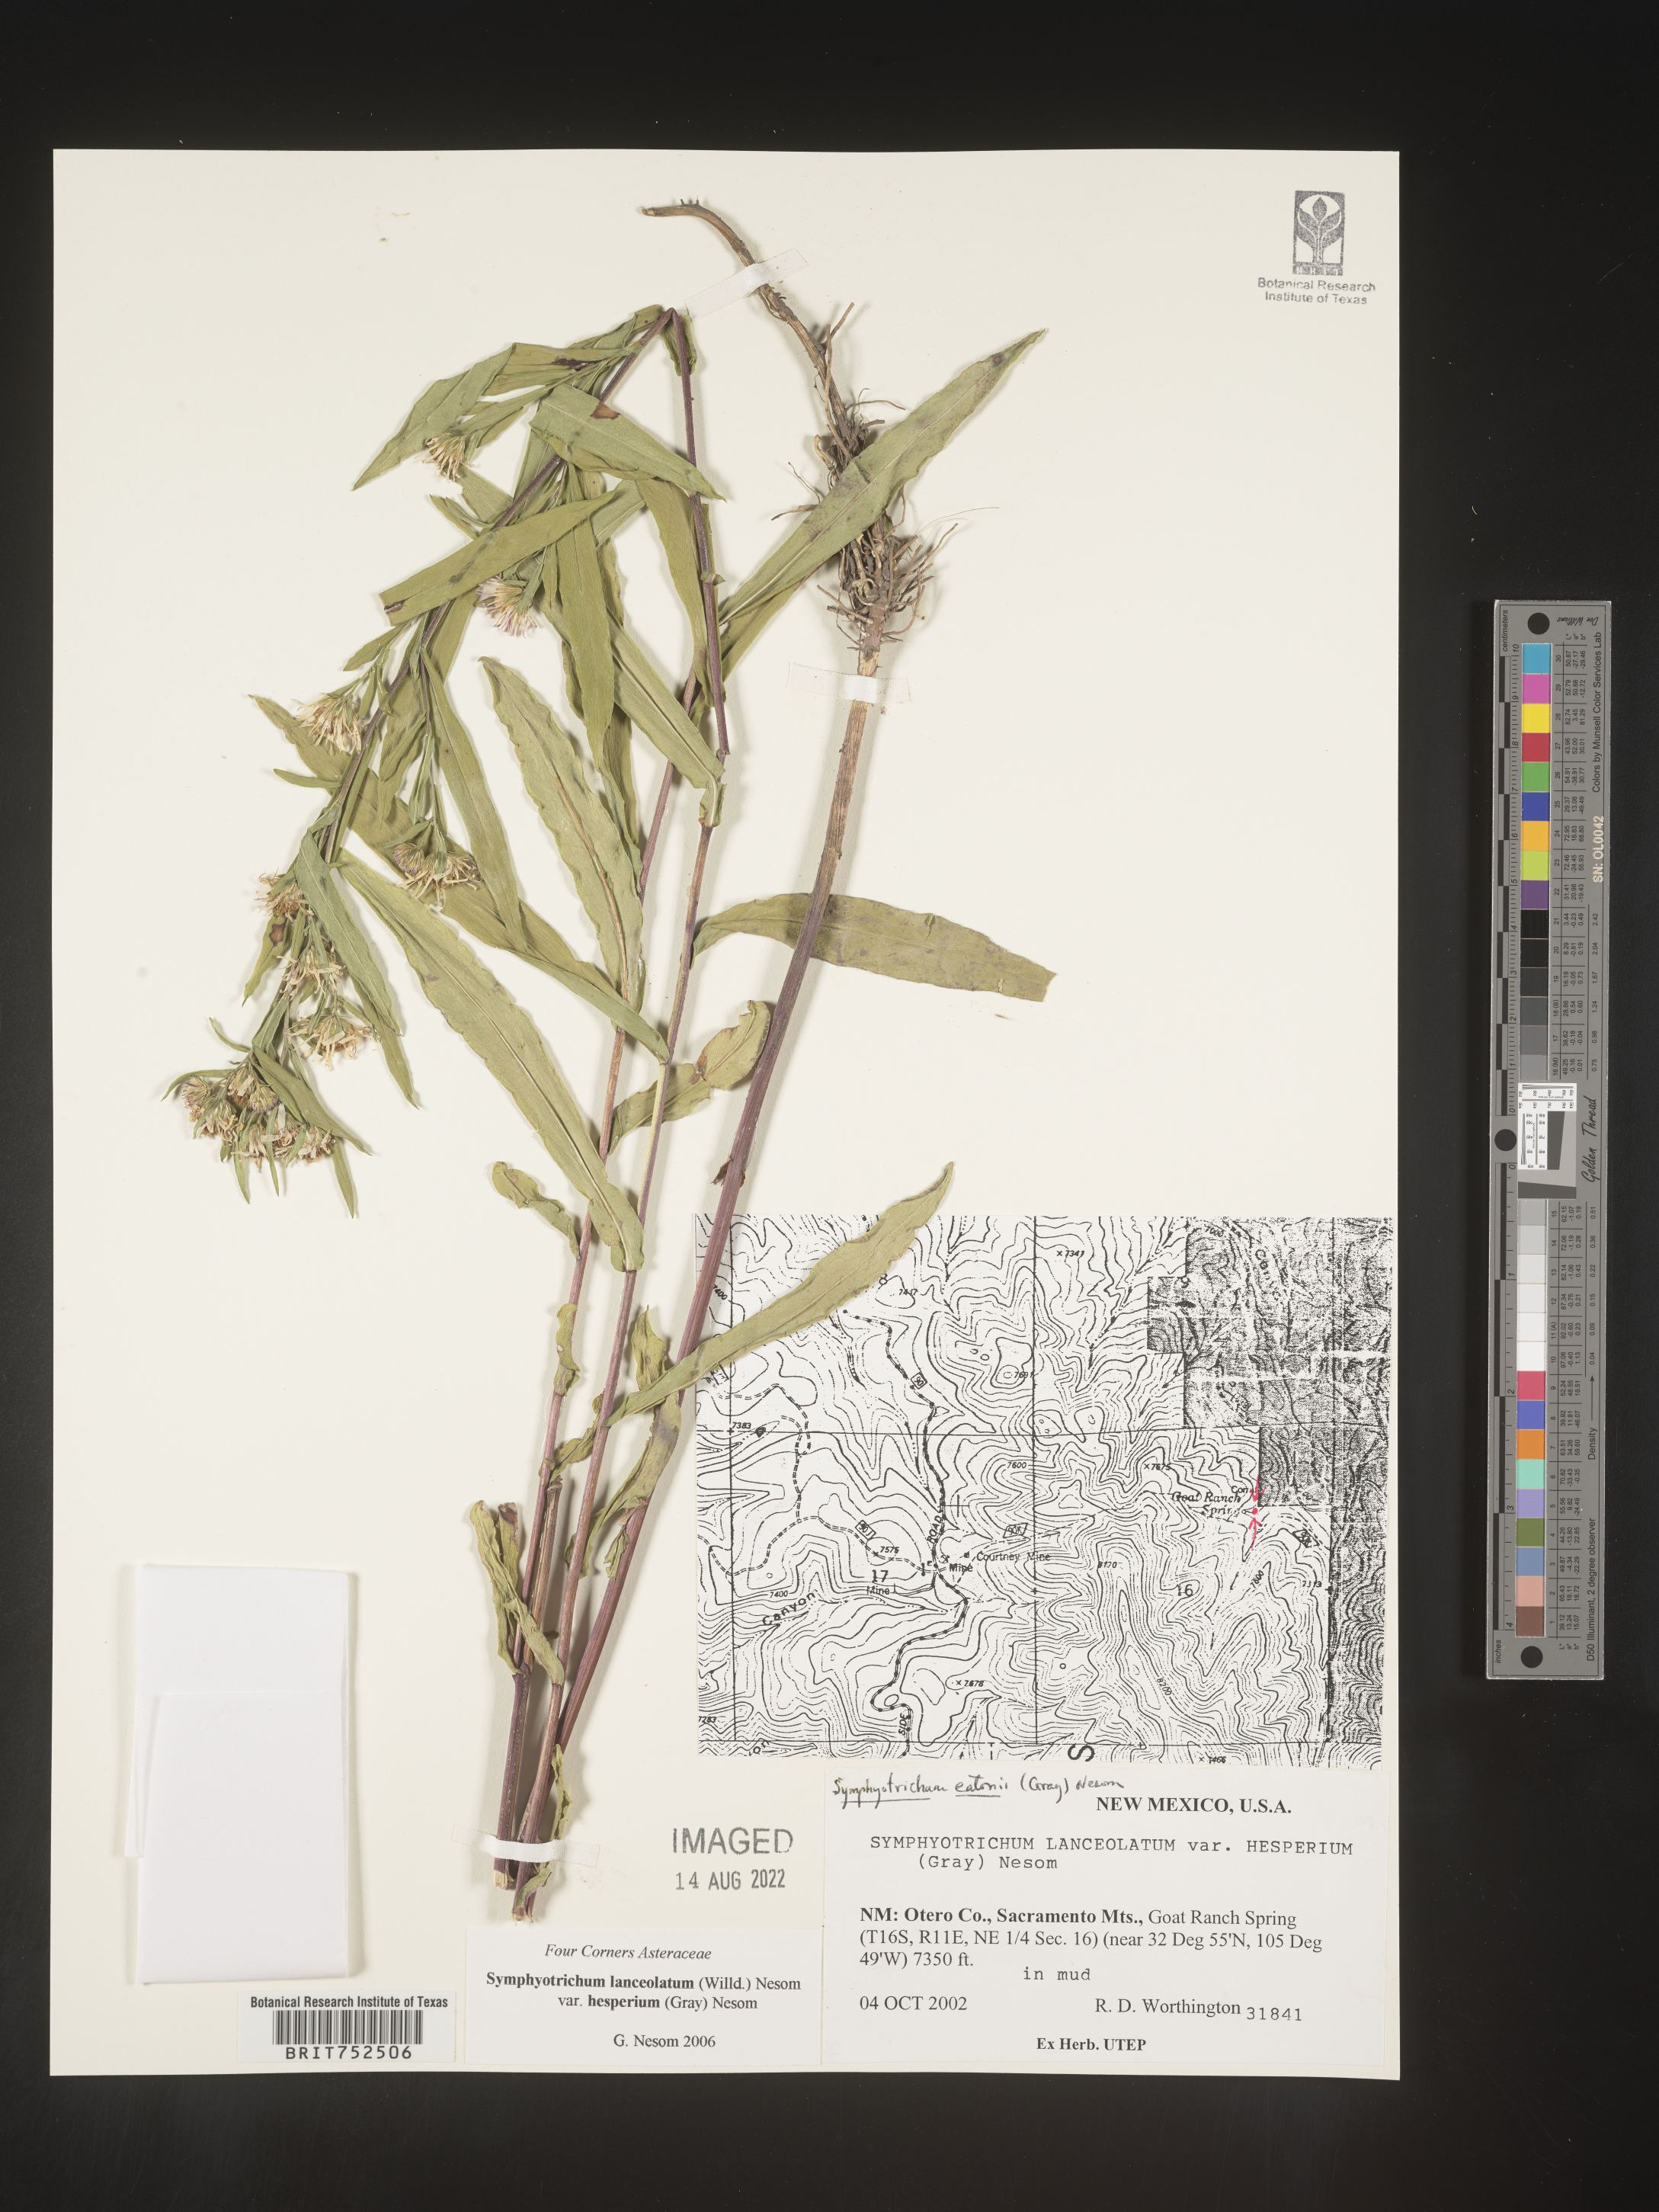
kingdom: Plantae
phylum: Tracheophyta
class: Magnoliopsida
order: Asterales
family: Asteraceae
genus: Symphyotrichum
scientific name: Symphyotrichum lanceolatum
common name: Panicled aster
